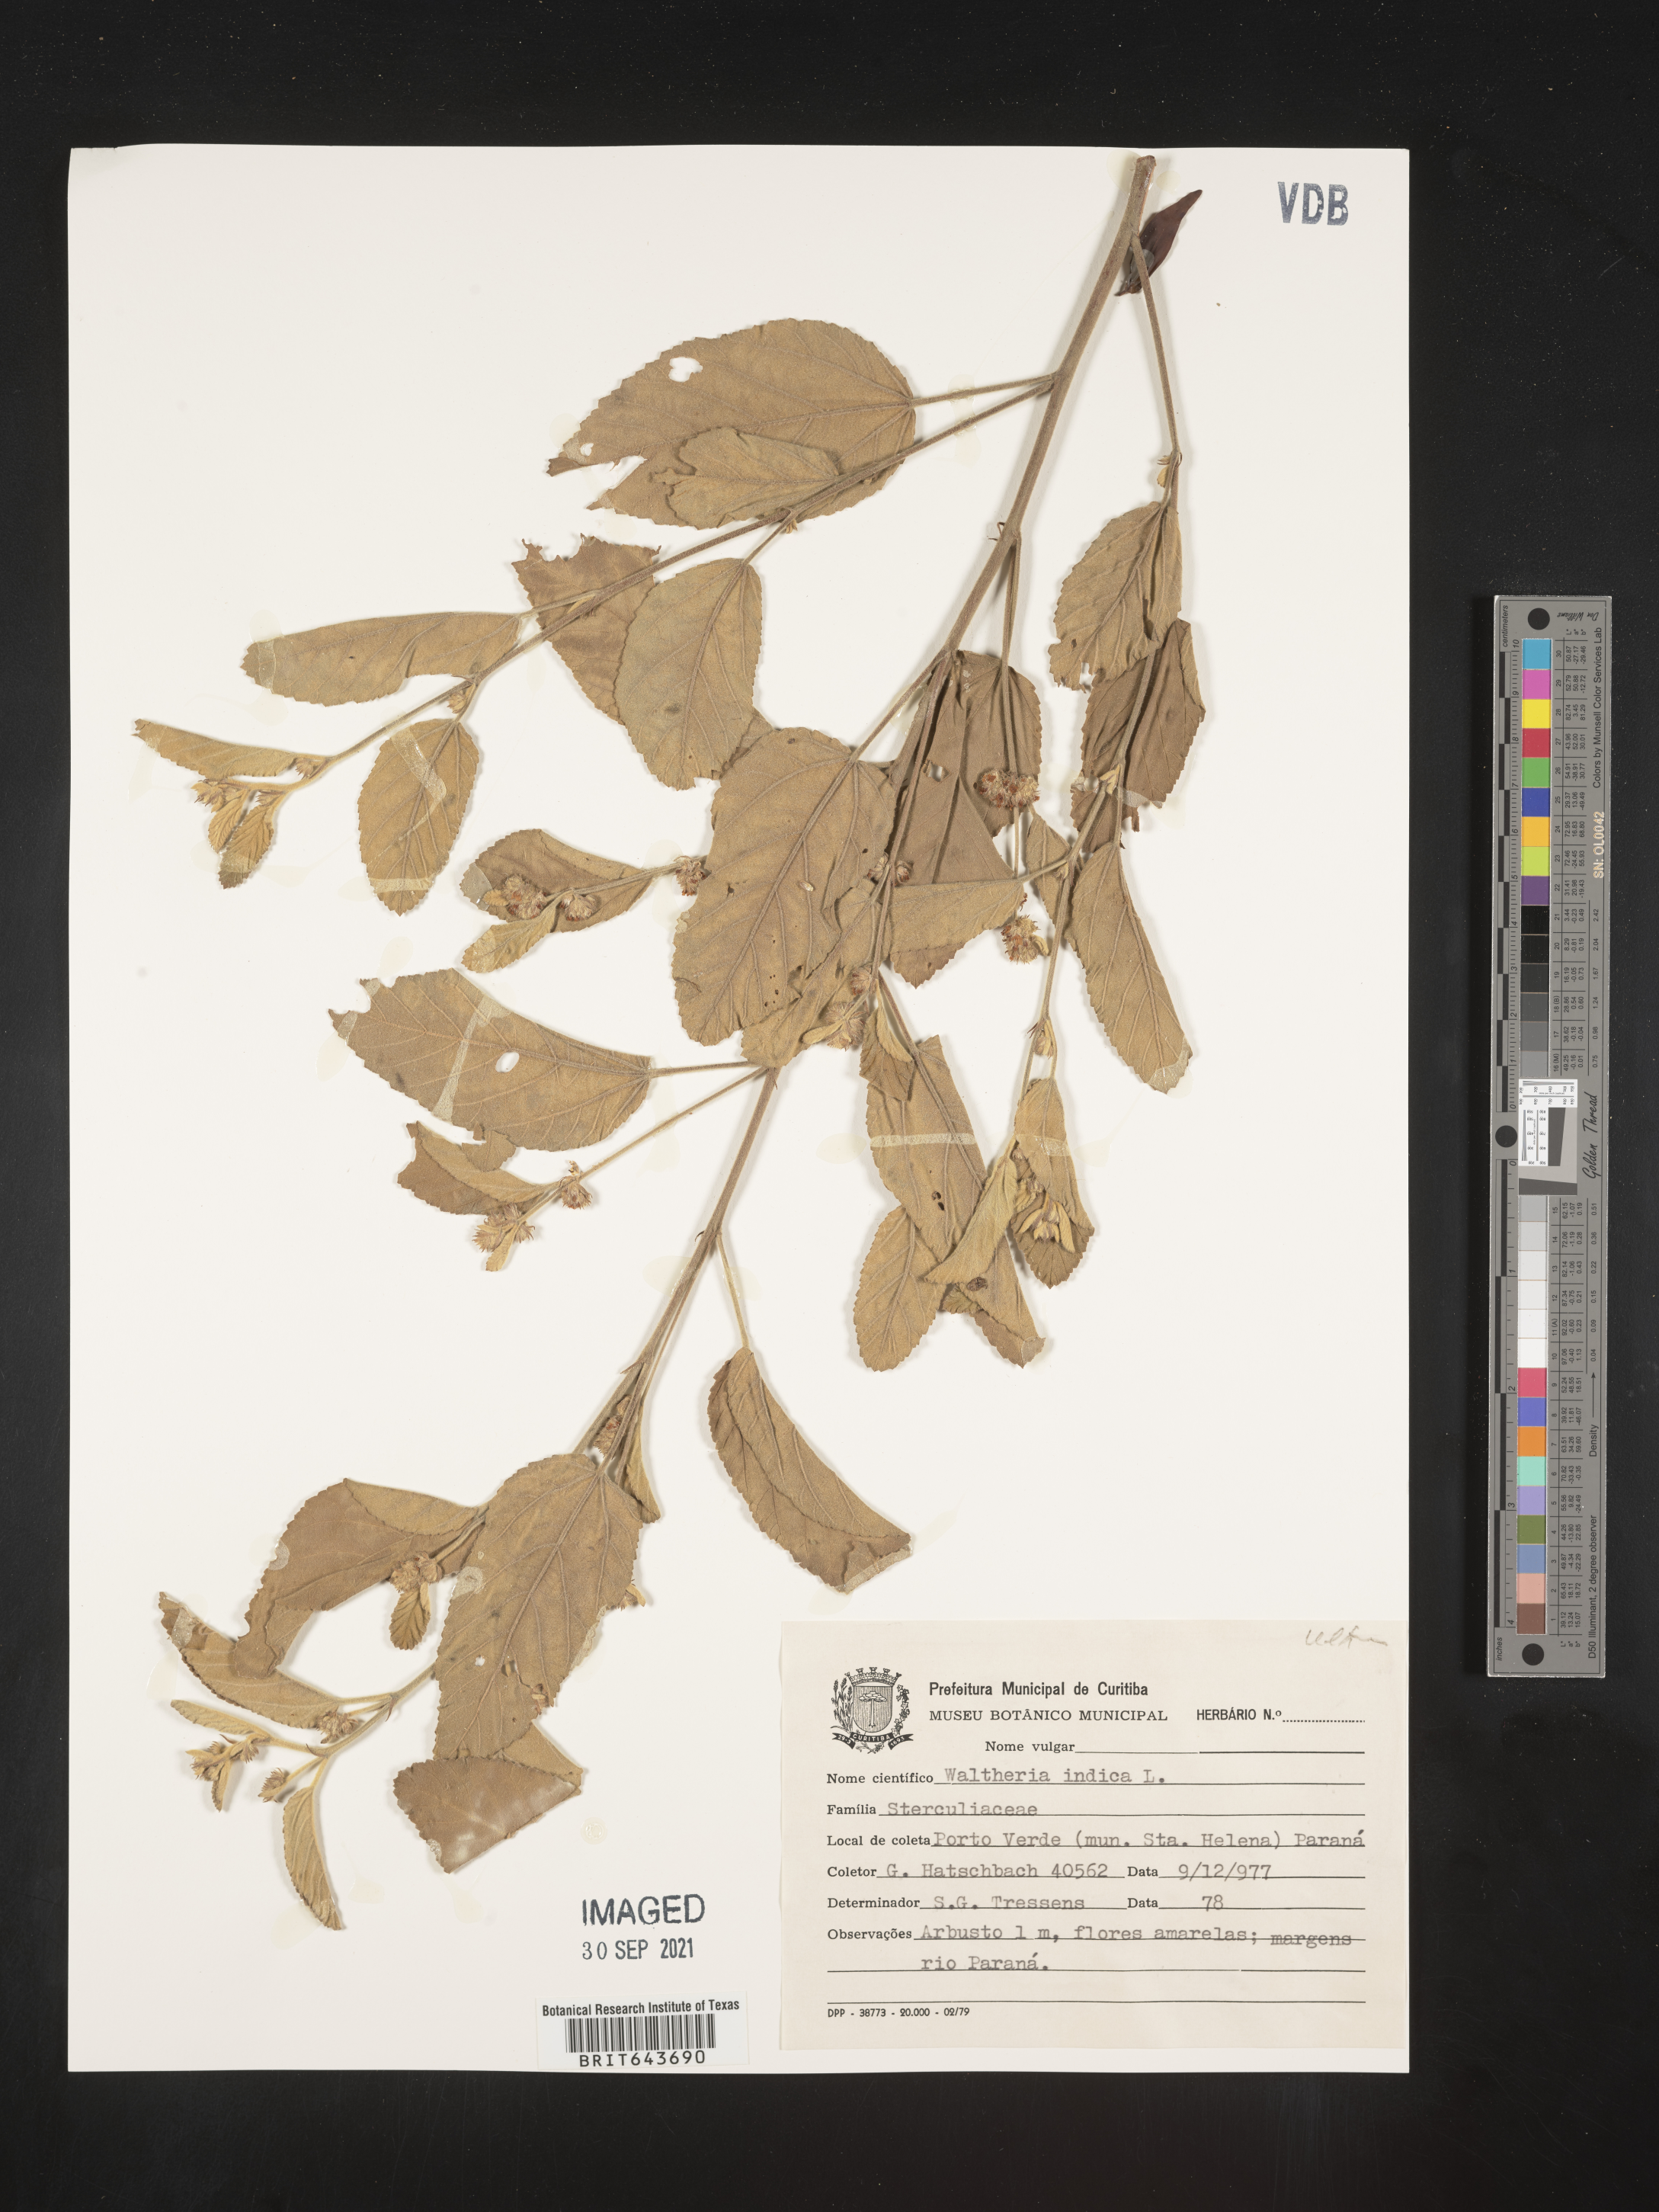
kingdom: Plantae
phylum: Tracheophyta
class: Magnoliopsida
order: Malvales
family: Malvaceae
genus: Waltheria
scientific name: Waltheria
